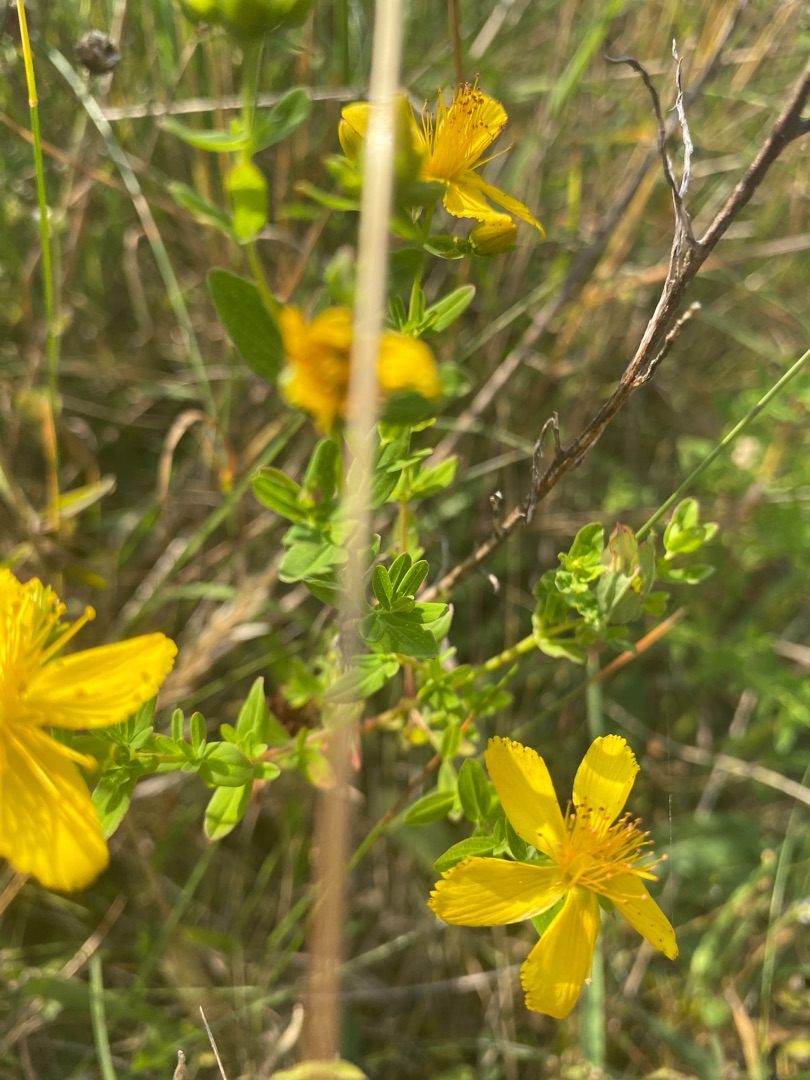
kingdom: Plantae
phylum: Tracheophyta
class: Magnoliopsida
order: Malpighiales
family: Hypericaceae
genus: Hypericum
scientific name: Hypericum perforatum
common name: Prikbladet perikon
